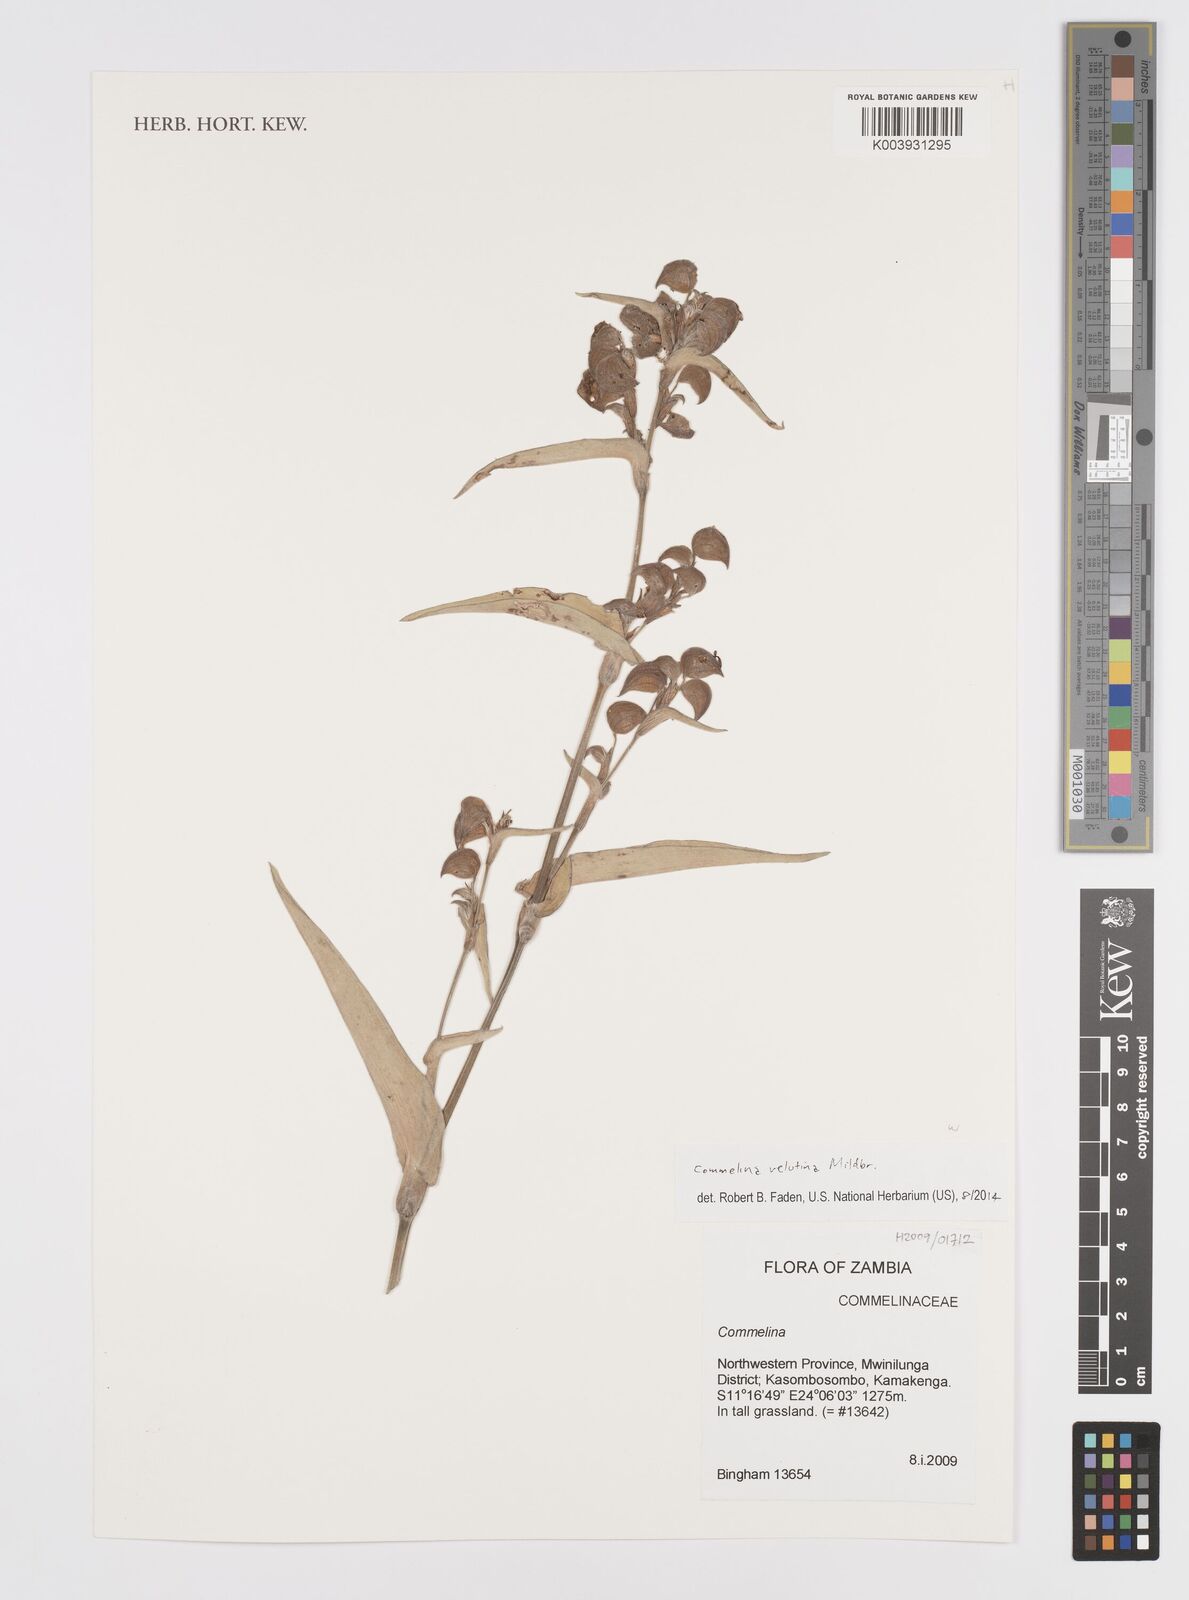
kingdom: Plantae
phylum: Tracheophyta
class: Liliopsida
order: Commelinales
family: Commelinaceae
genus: Commelina
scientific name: Commelina velutina
